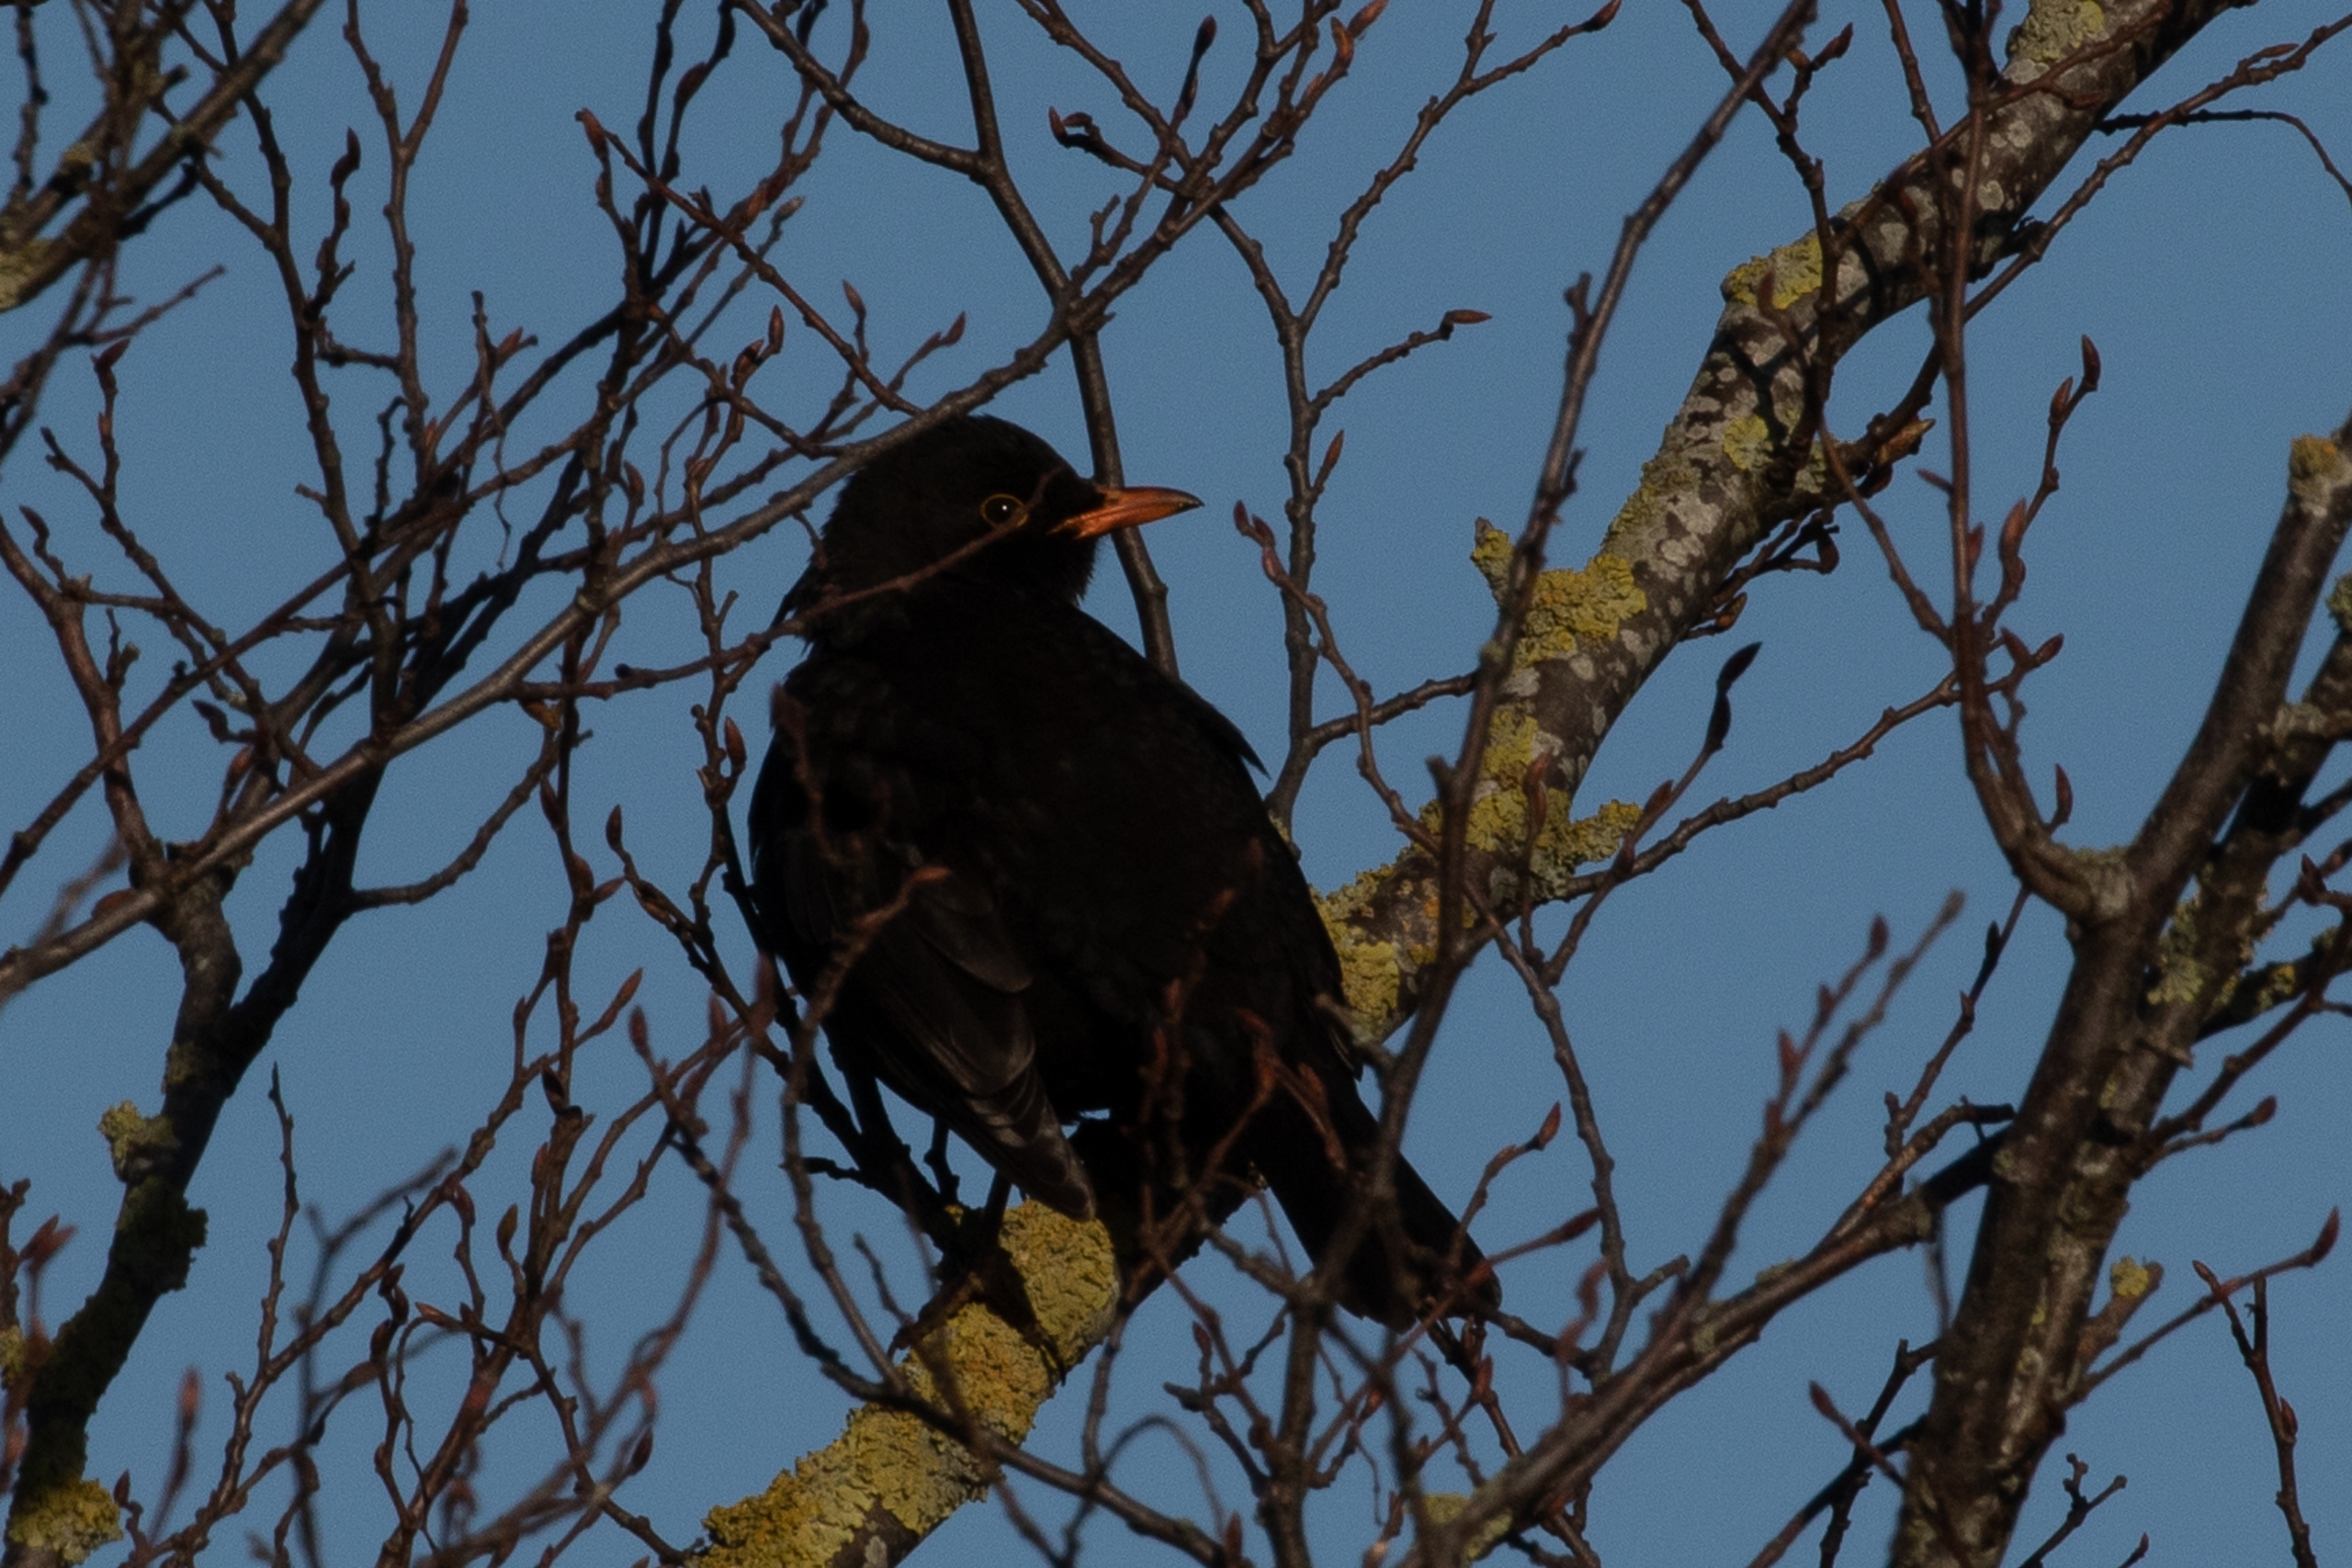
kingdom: Animalia
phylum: Chordata
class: Aves
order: Passeriformes
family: Turdidae
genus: Turdus
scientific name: Turdus merula
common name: Solsort
